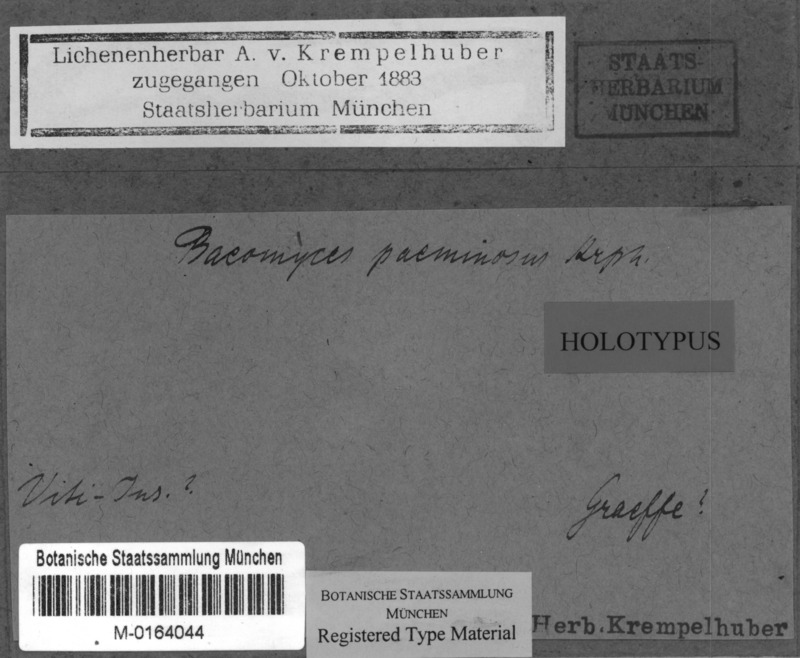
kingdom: Fungi
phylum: Ascomycota
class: Lecanoromycetes
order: Baeomycetales
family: Baeomycetaceae
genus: Baeomyces
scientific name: Baeomyces
